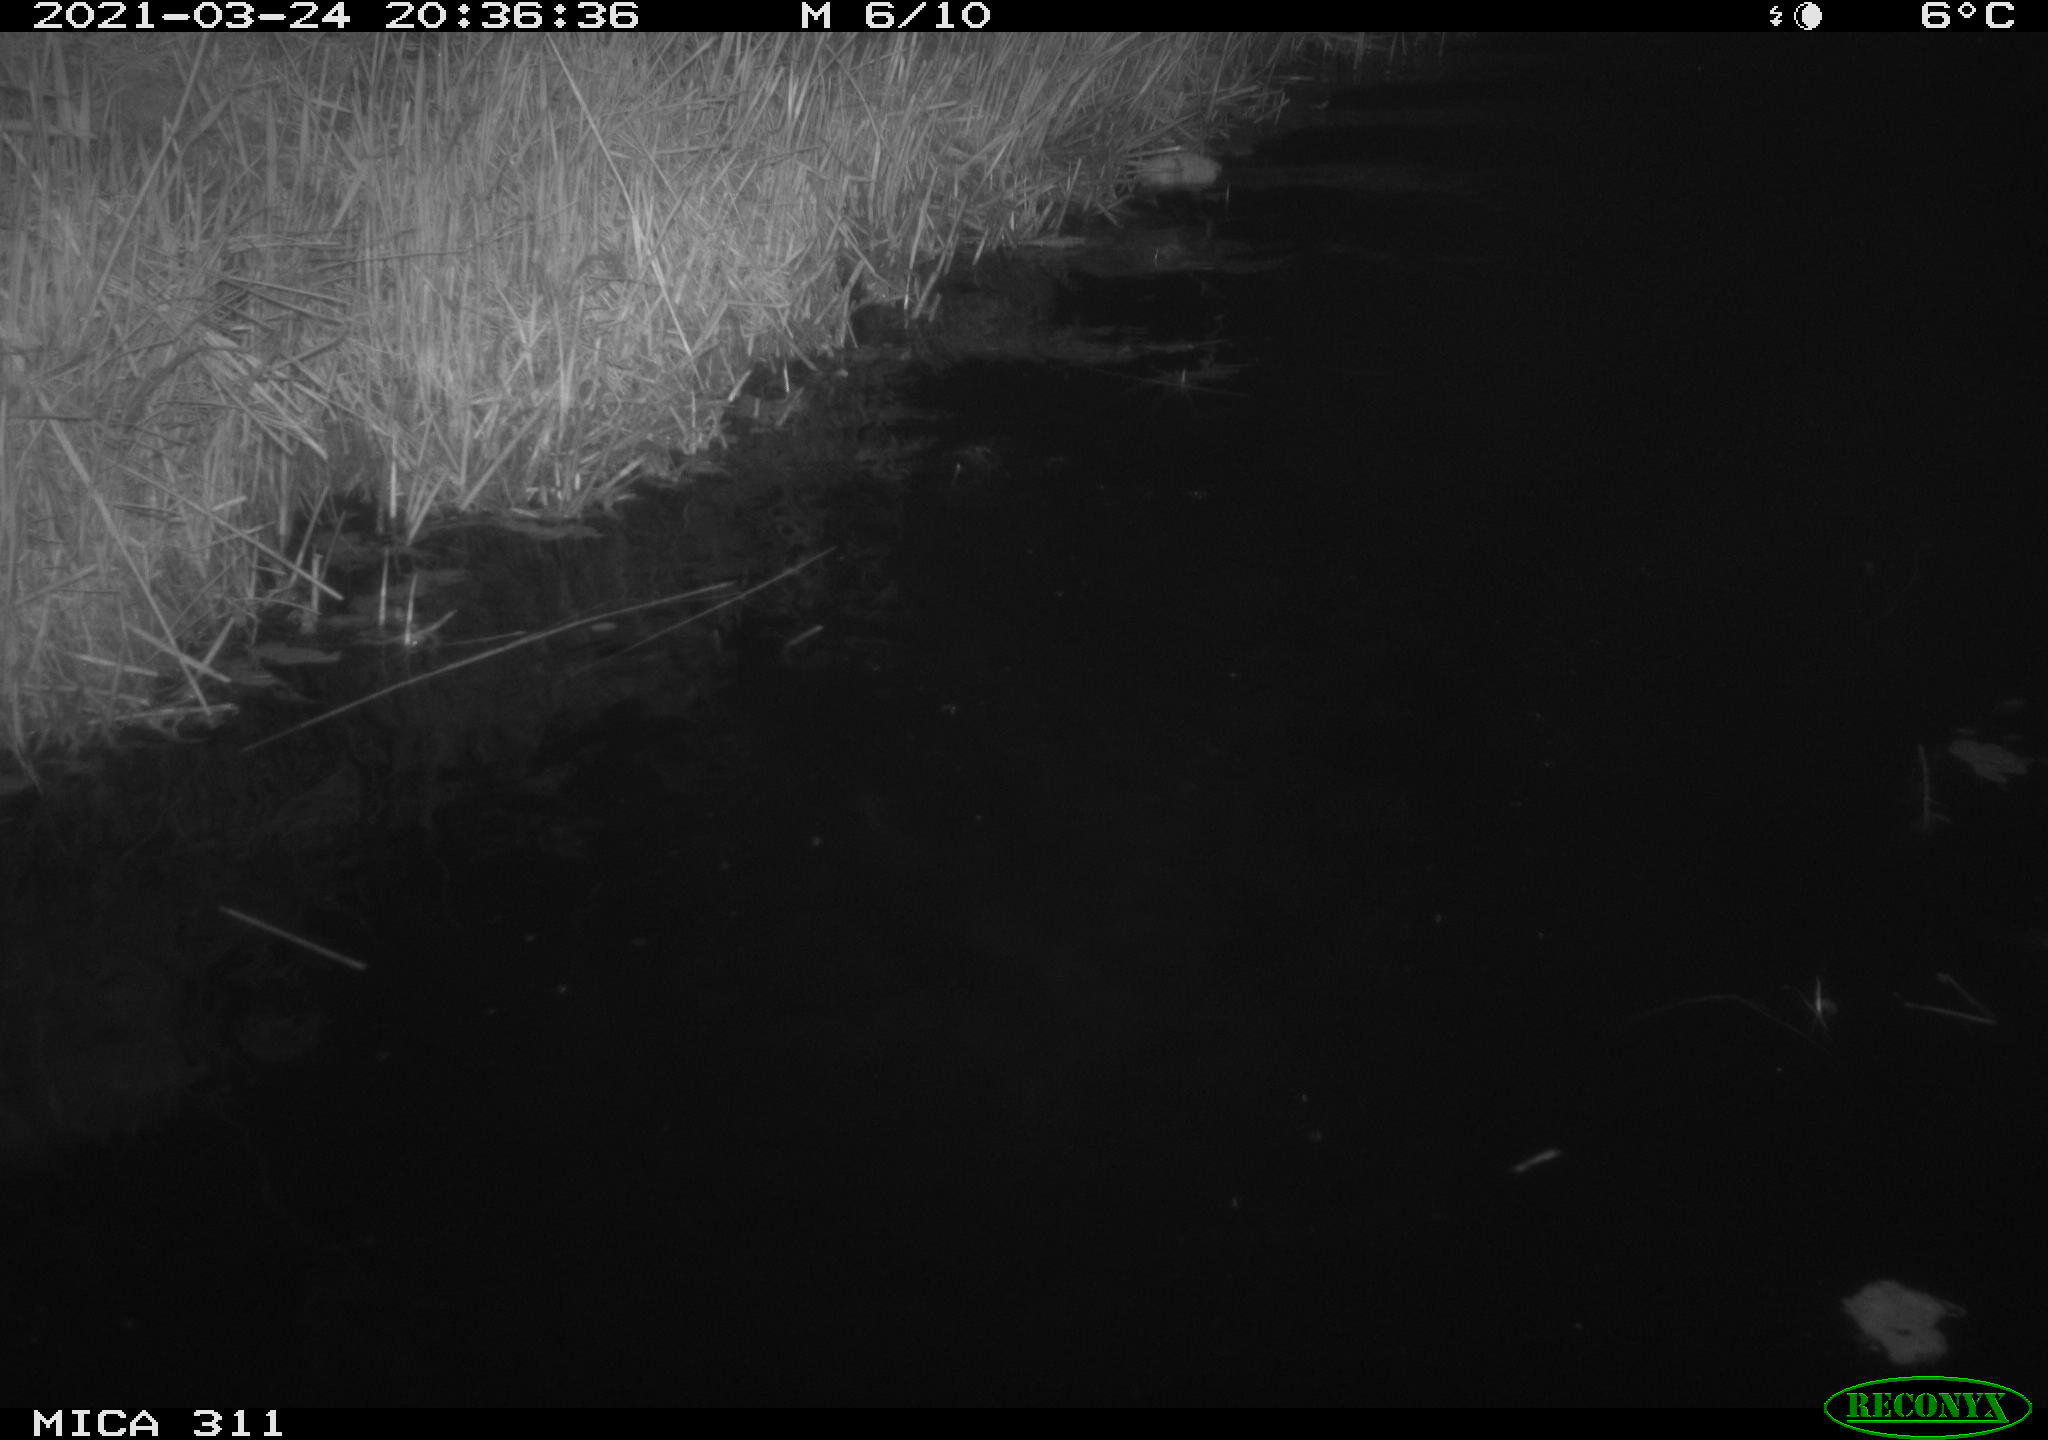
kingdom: Animalia
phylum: Chordata
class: Aves
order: Anseriformes
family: Anatidae
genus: Anas
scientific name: Anas platyrhynchos
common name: Mallard
